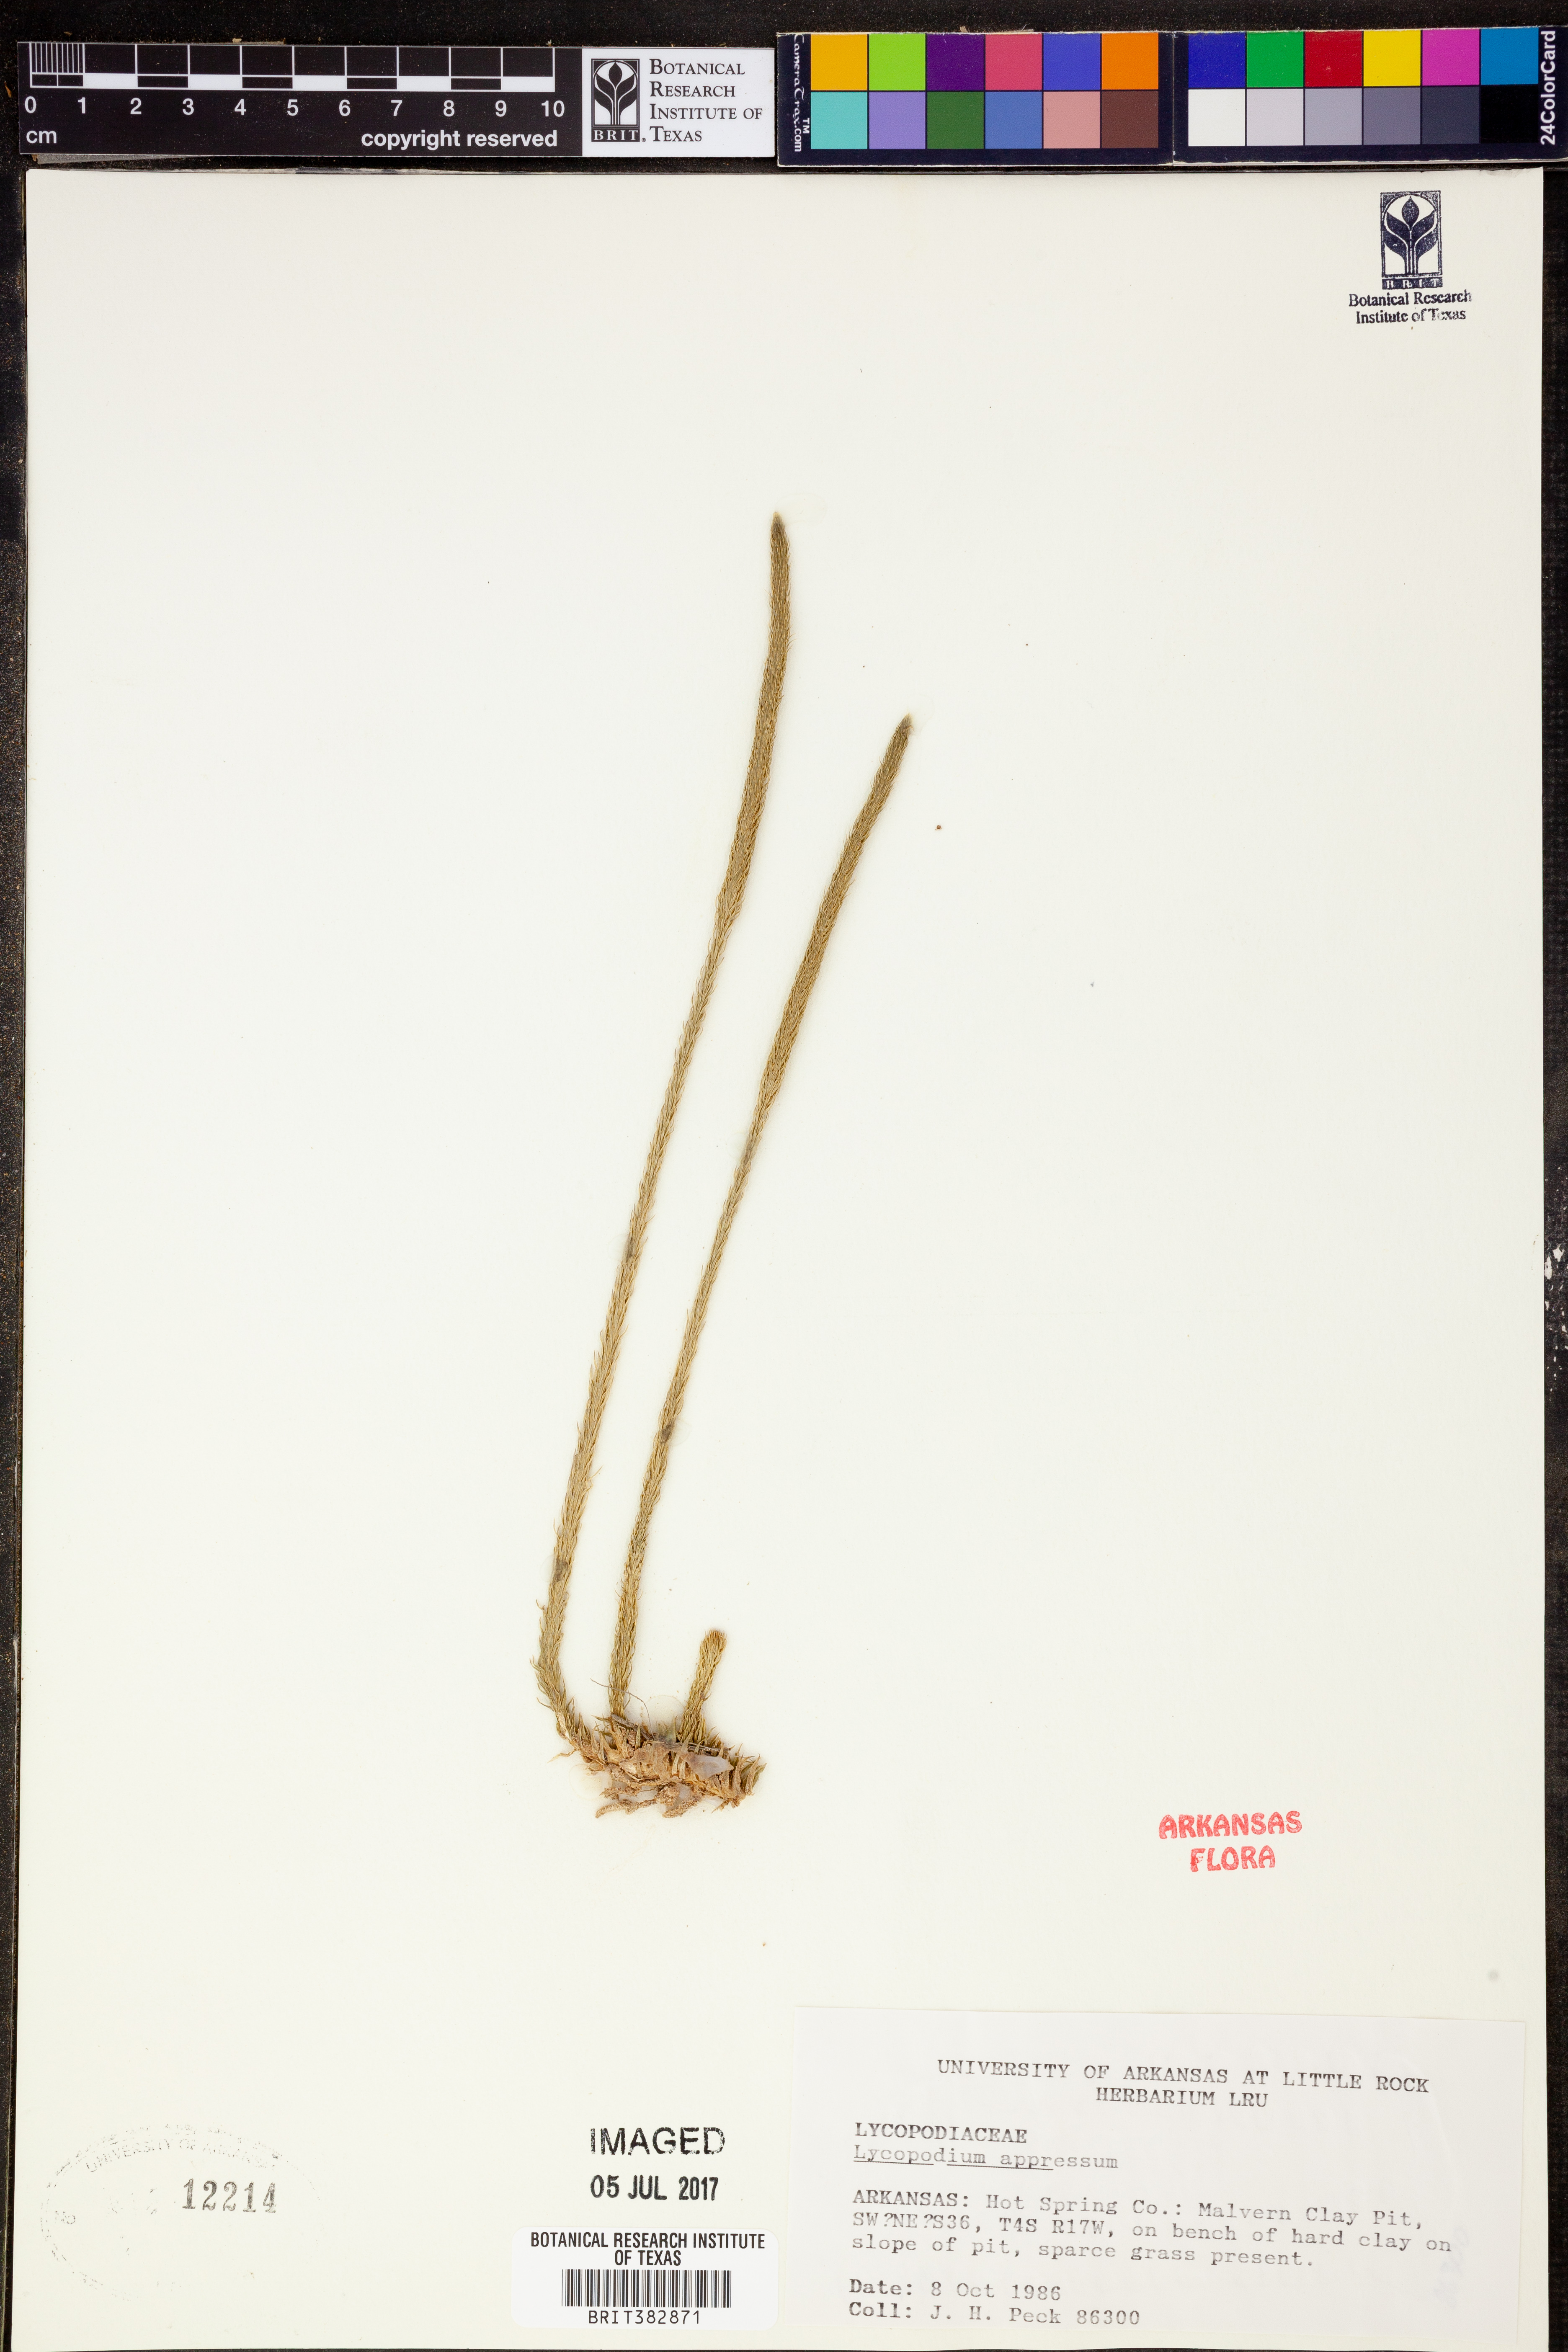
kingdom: Plantae
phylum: Tracheophyta
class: Lycopodiopsida
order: Lycopodiales
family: Lycopodiaceae
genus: Lycopodiella
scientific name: Lycopodiella appressa
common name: Appressed bog clubmoss
